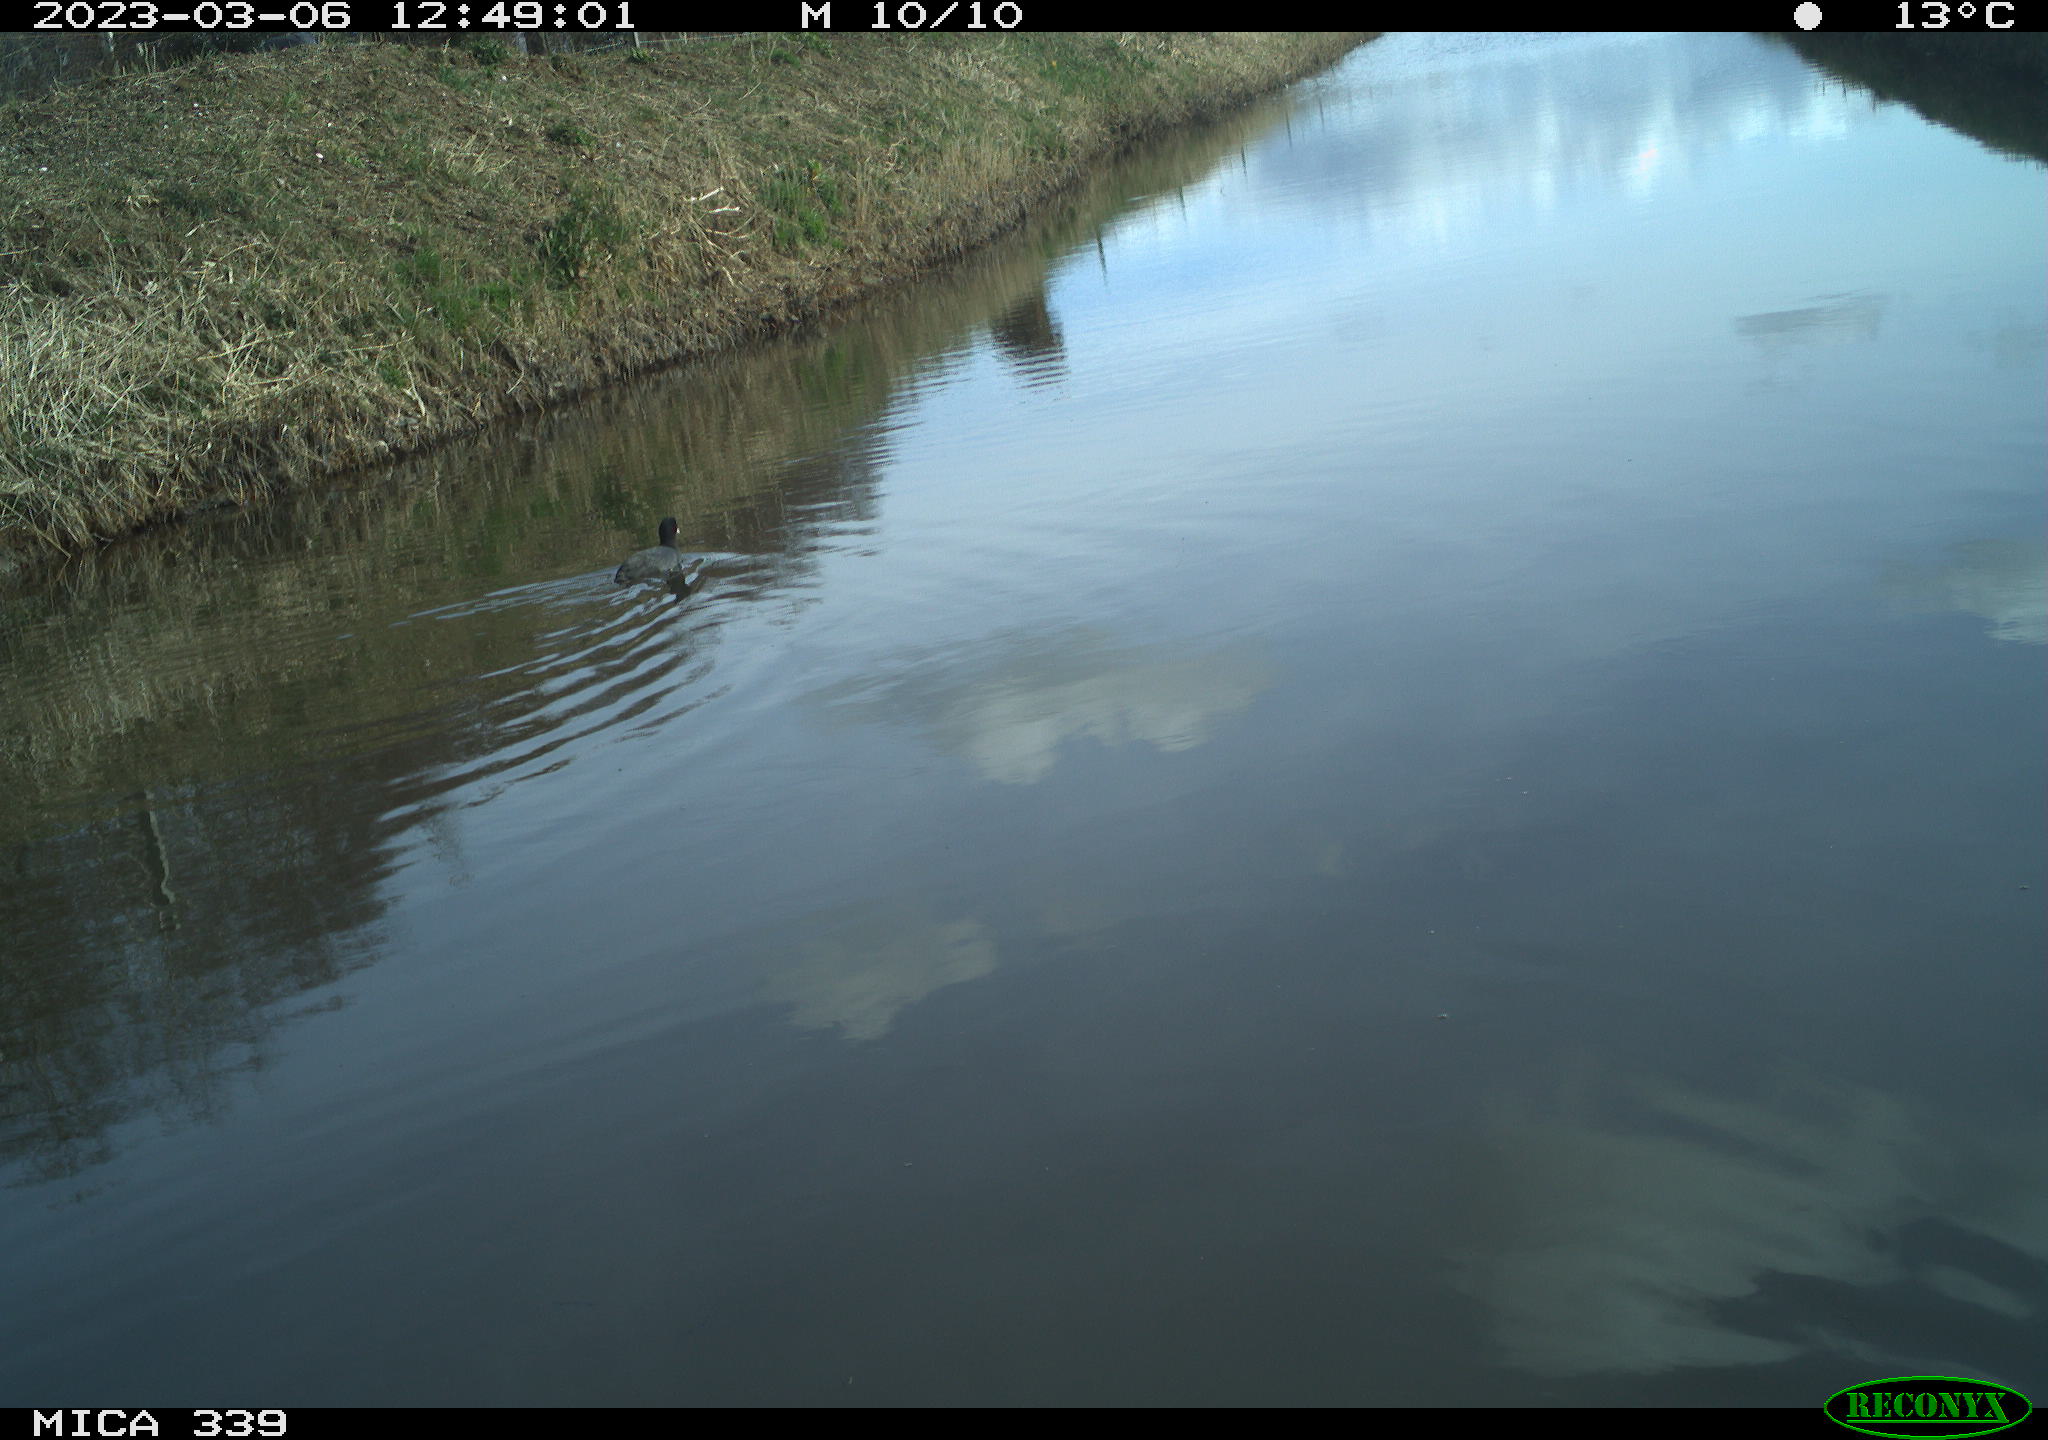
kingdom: Animalia
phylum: Chordata
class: Aves
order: Gruiformes
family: Rallidae
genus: Fulica
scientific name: Fulica atra
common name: Eurasian coot
